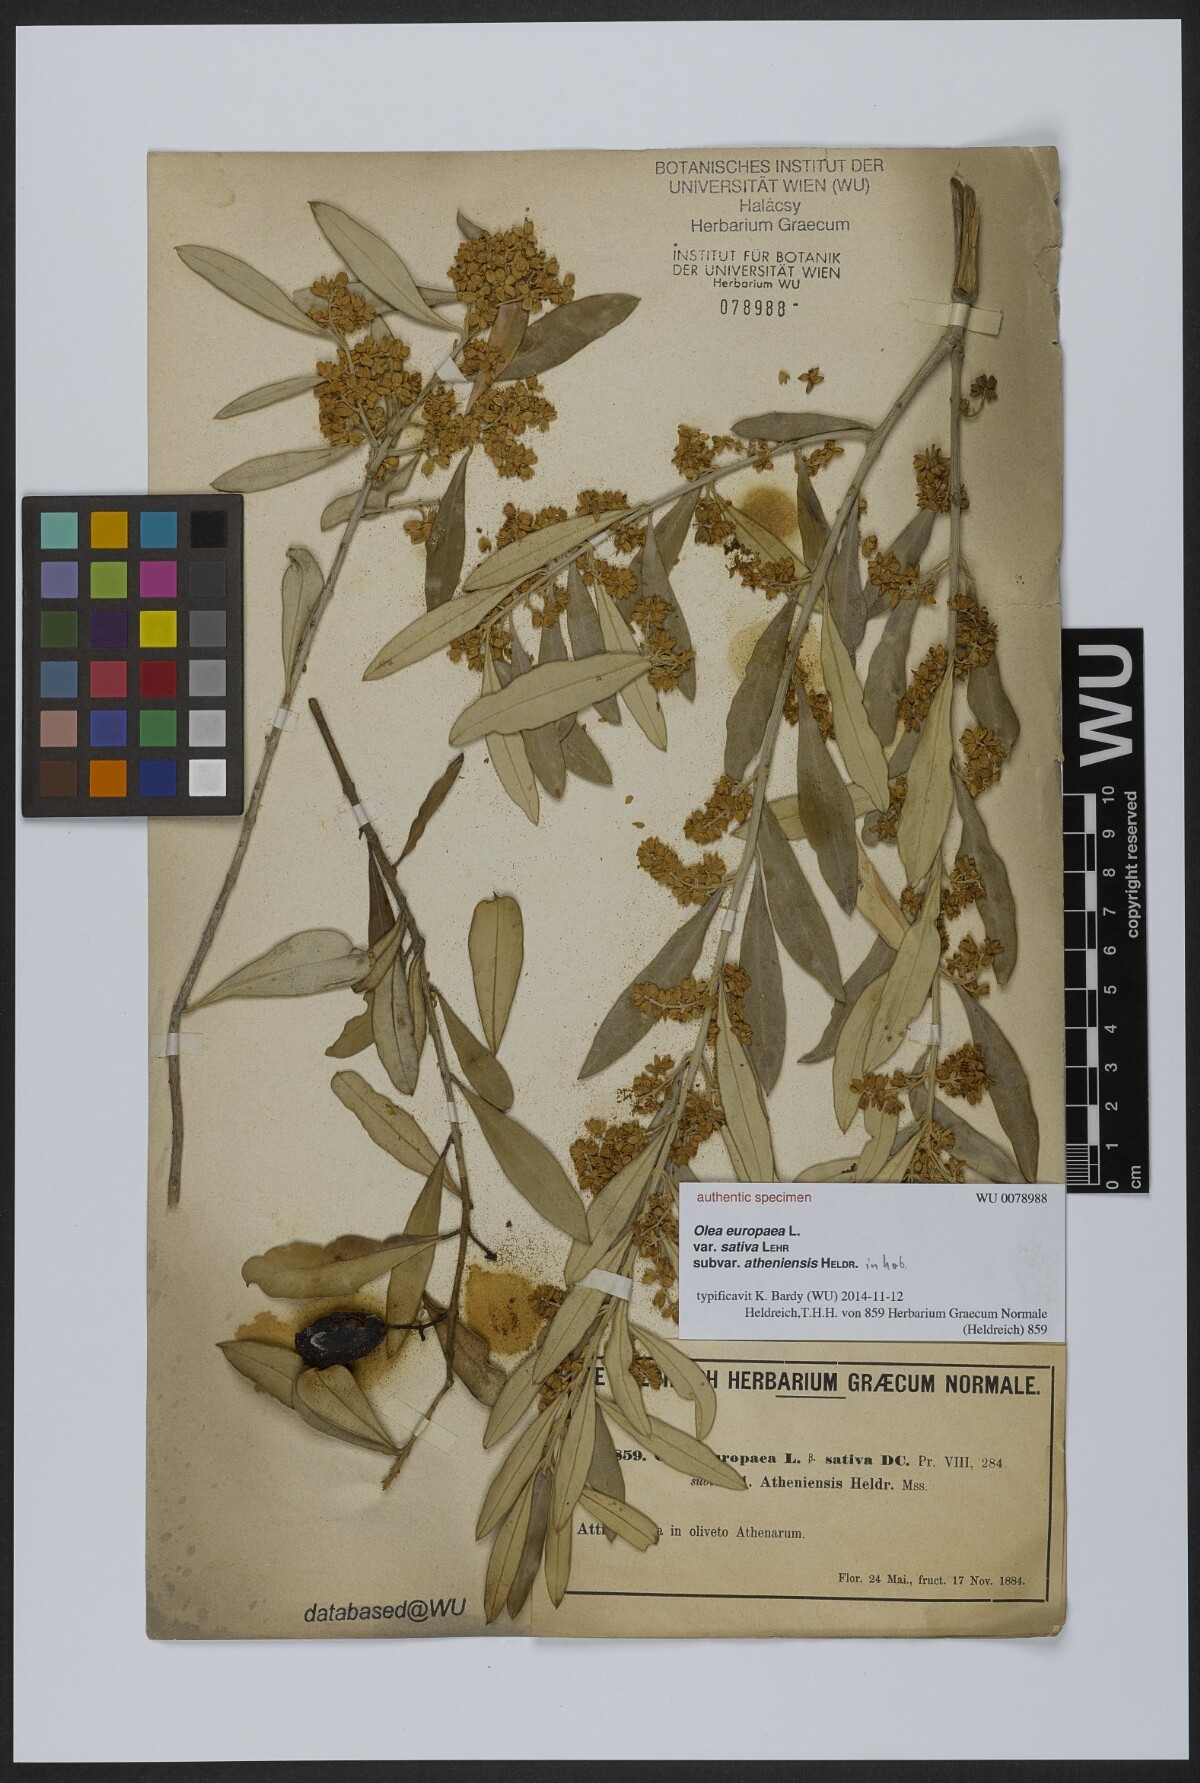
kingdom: Plantae
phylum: Tracheophyta
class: Magnoliopsida
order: Lamiales
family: Oleaceae
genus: Olea
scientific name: Olea europaea
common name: Olive
